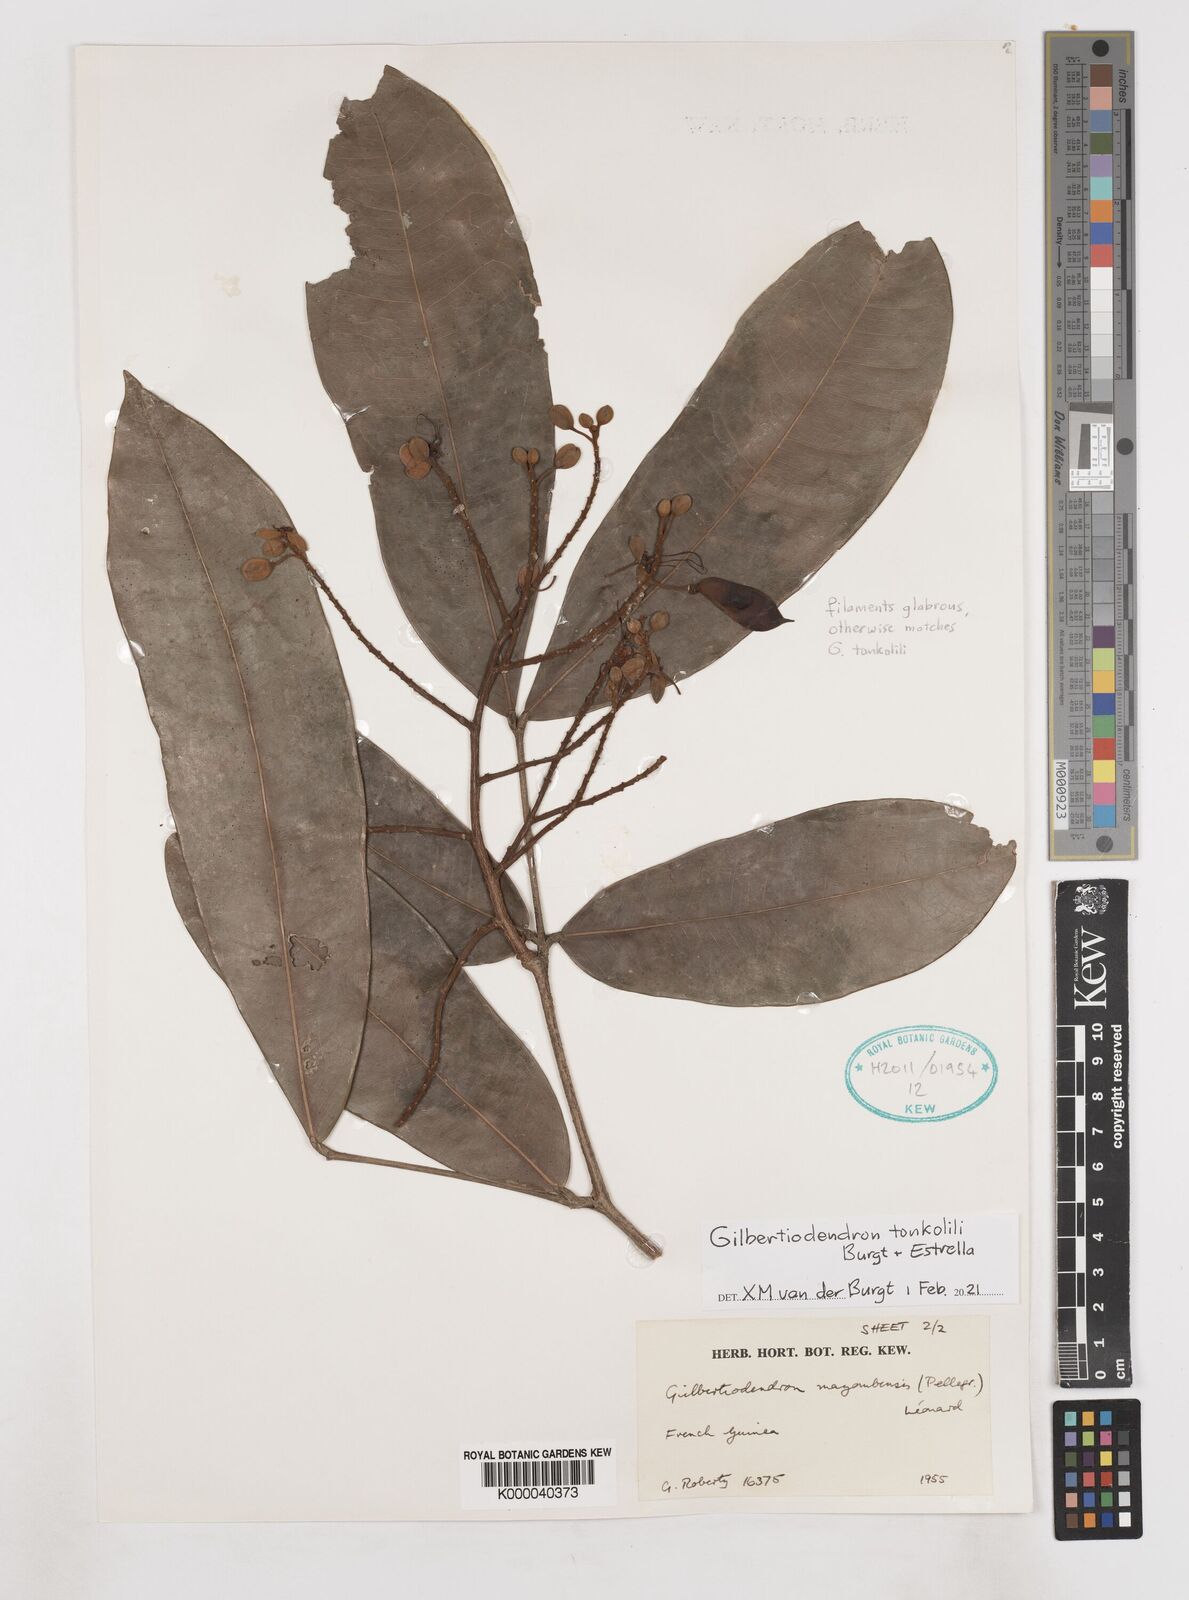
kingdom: Plantae
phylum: Tracheophyta
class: Magnoliopsida
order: Fabales
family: Fabaceae
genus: Gilbertiodendron
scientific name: Gilbertiodendron
